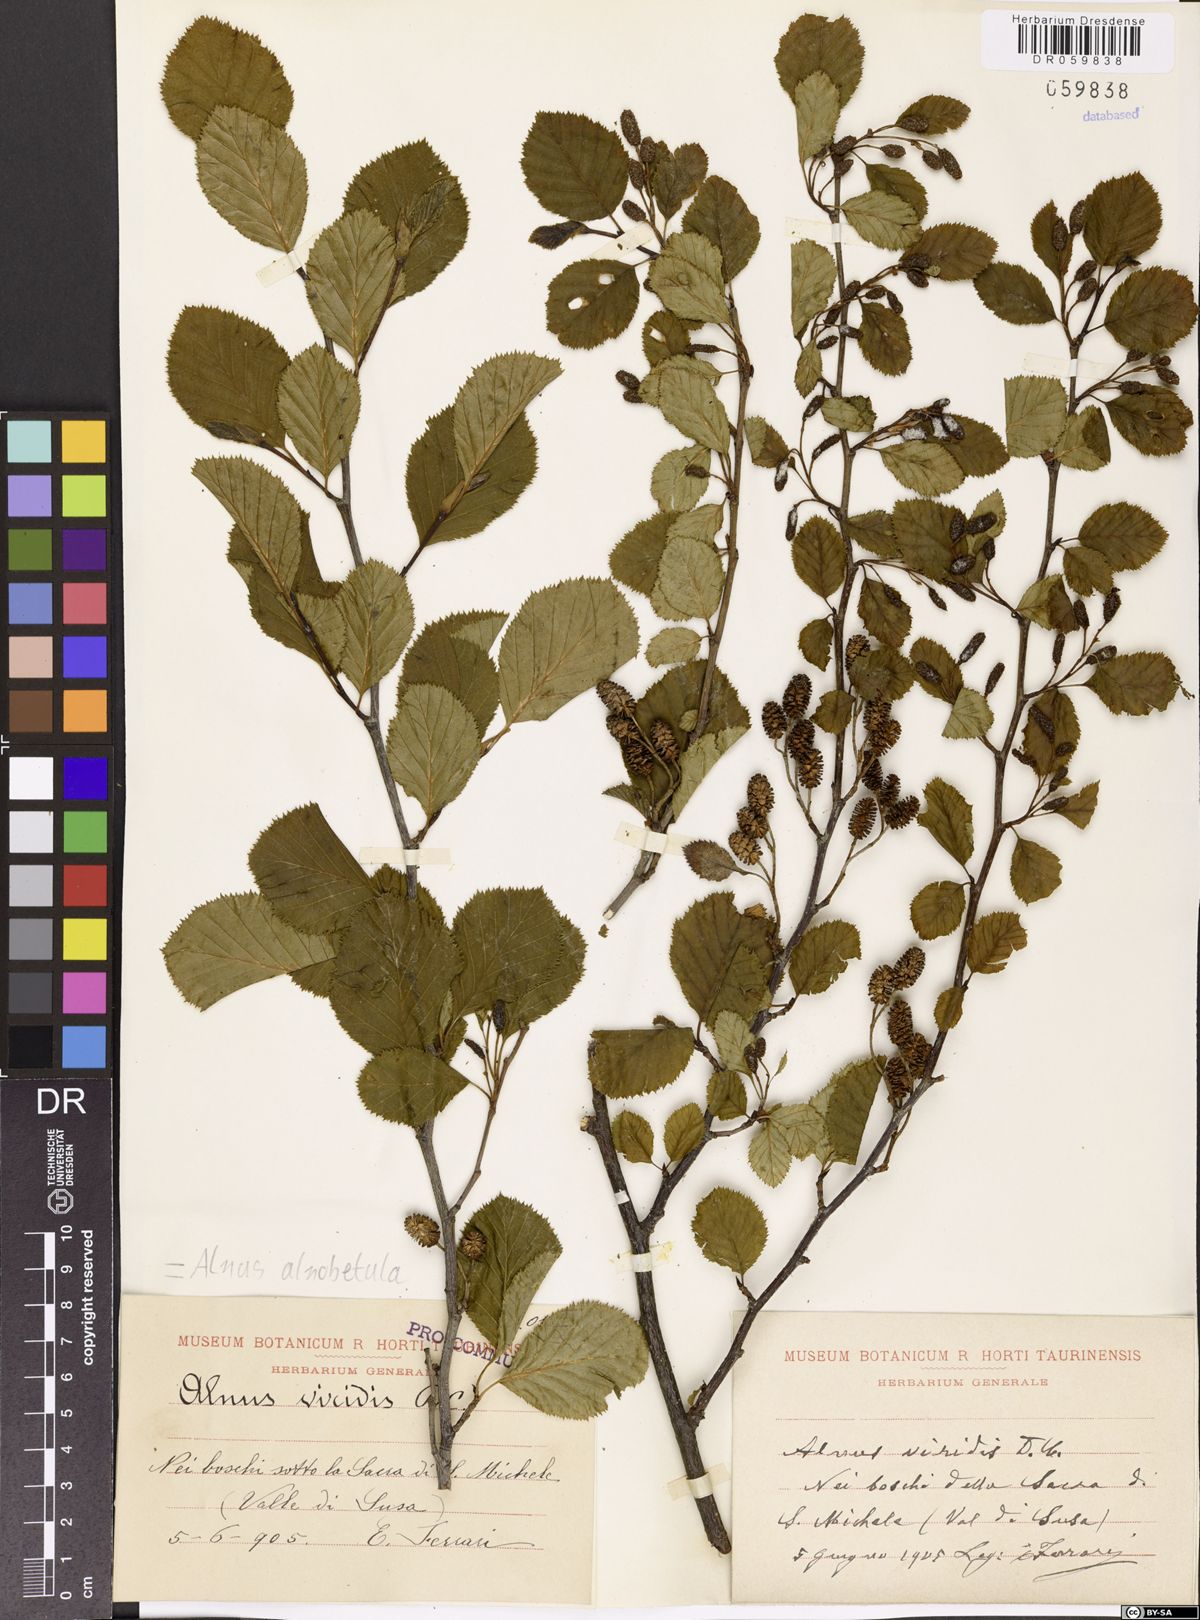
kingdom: Plantae
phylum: Tracheophyta
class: Magnoliopsida
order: Fagales
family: Betulaceae
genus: Alnus
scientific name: Alnus alnobetula
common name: Green alder
